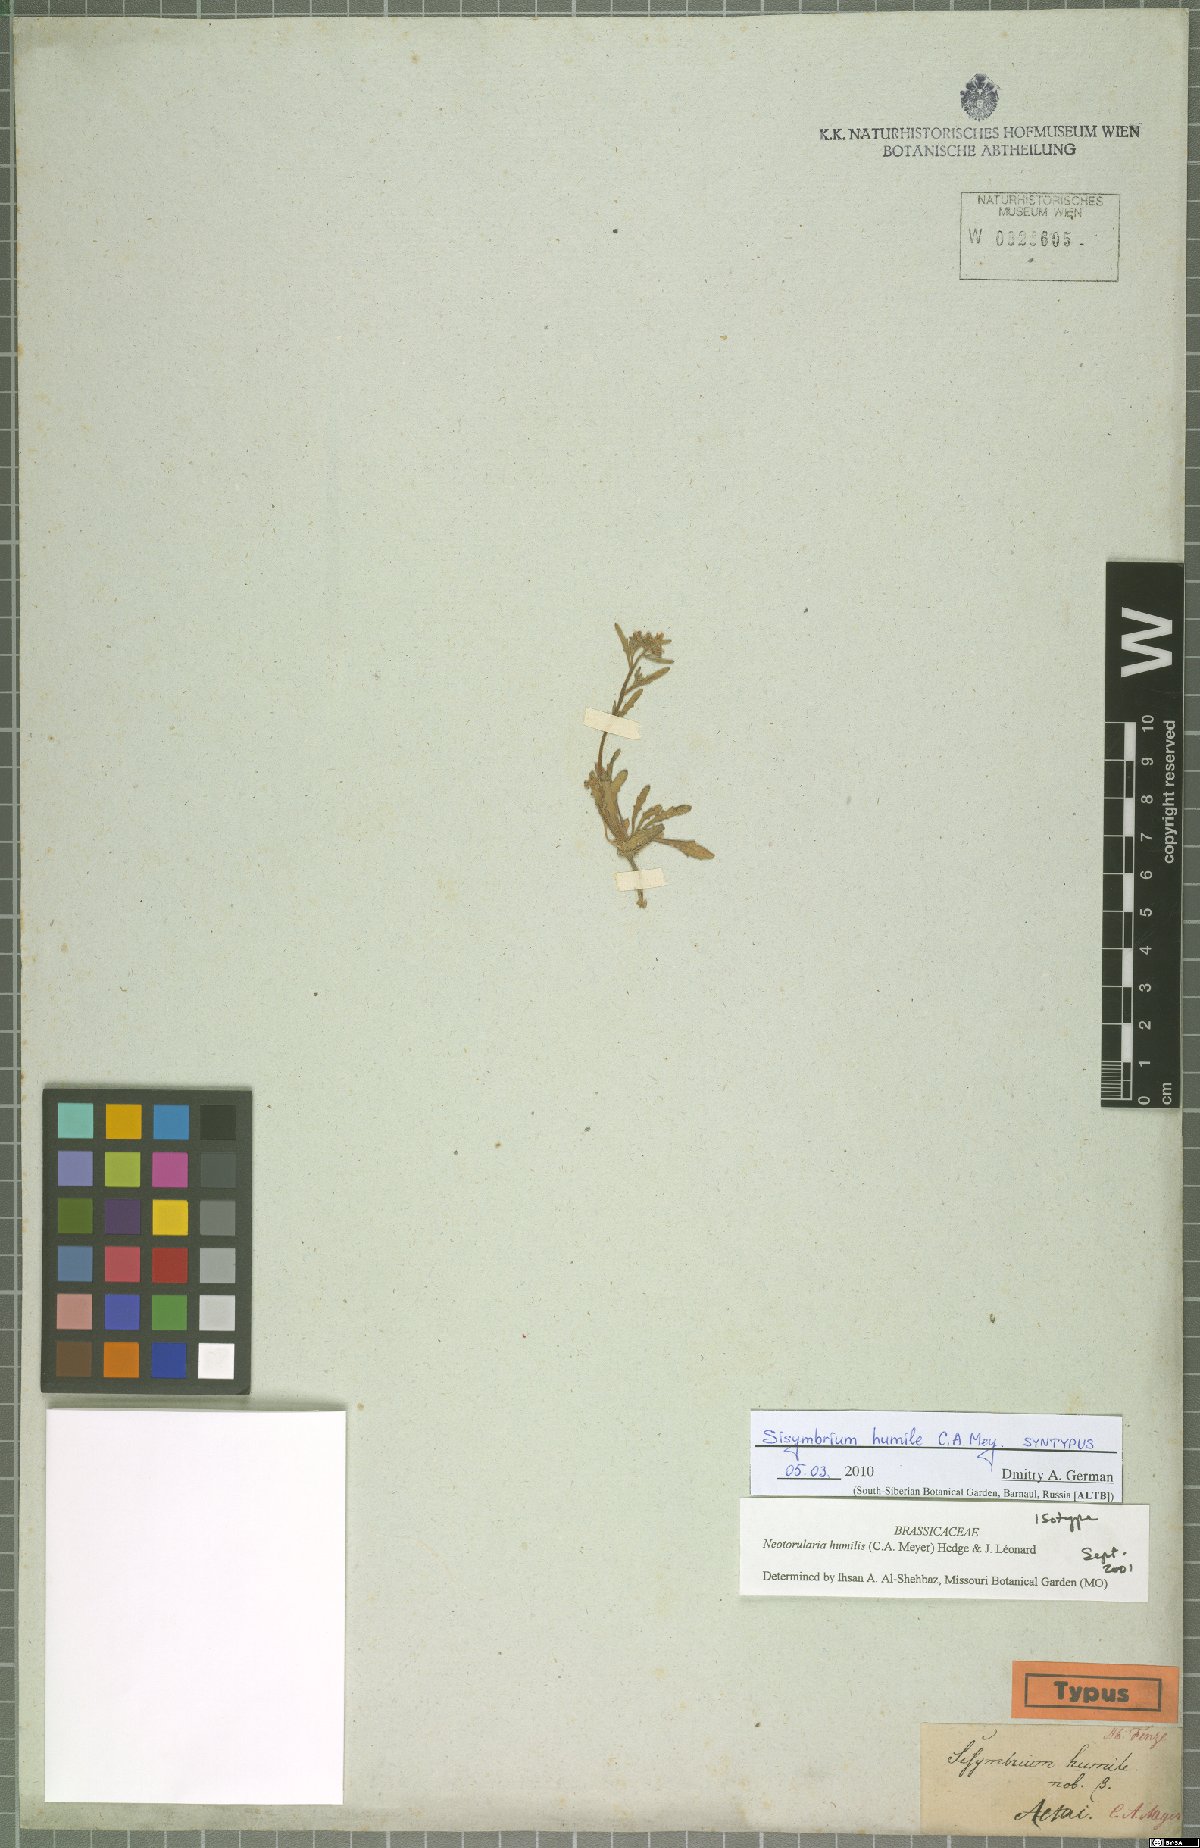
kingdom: Plantae
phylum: Tracheophyta
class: Magnoliopsida
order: Brassicales
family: Brassicaceae
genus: Braya
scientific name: Braya humilis
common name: Alpine northern rockcress
